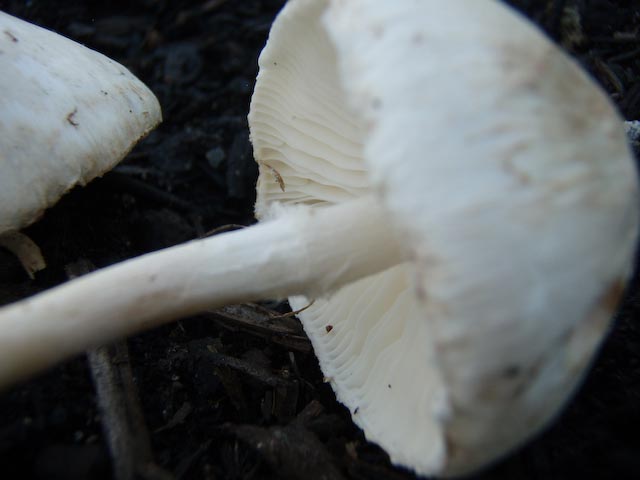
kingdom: Fungi
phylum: Basidiomycota
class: Agaricomycetes
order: Agaricales
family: Agaricaceae
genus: Lepiota
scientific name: Lepiota erminea
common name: hvid parasolhat
